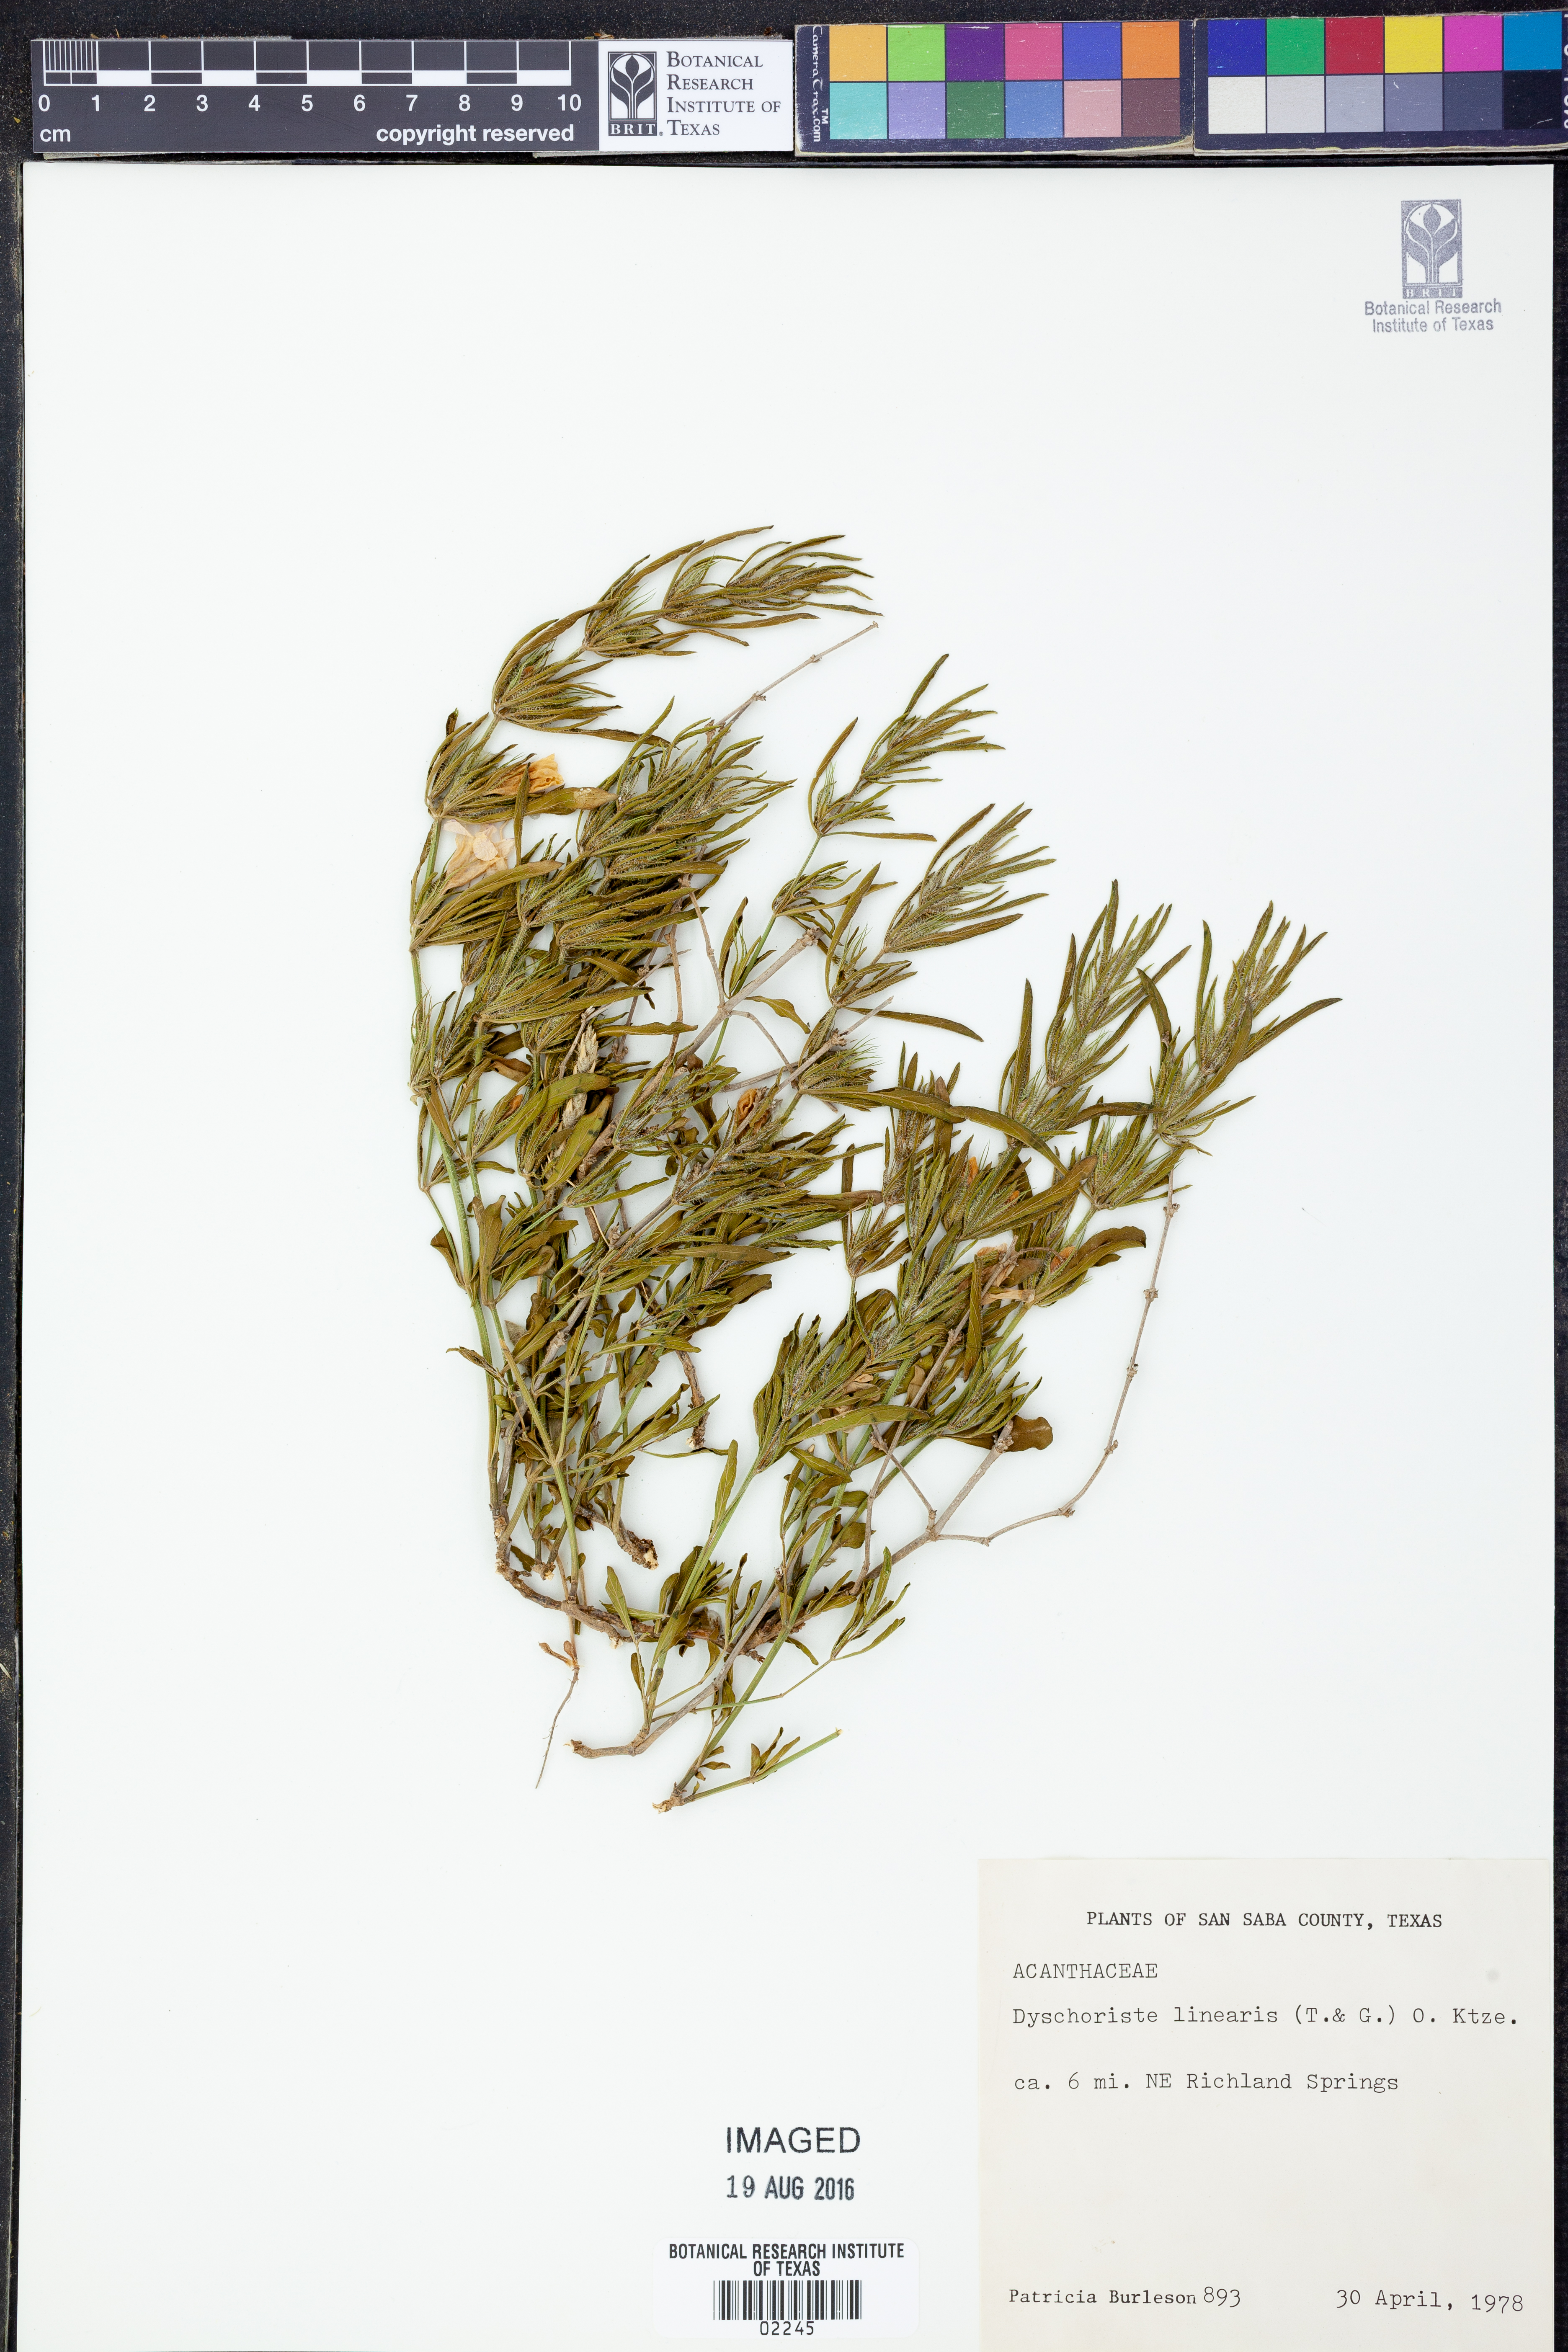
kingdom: Plantae
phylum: Tracheophyta
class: Magnoliopsida
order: Lamiales
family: Acanthaceae
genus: Dyschoriste
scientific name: Dyschoriste linearis
